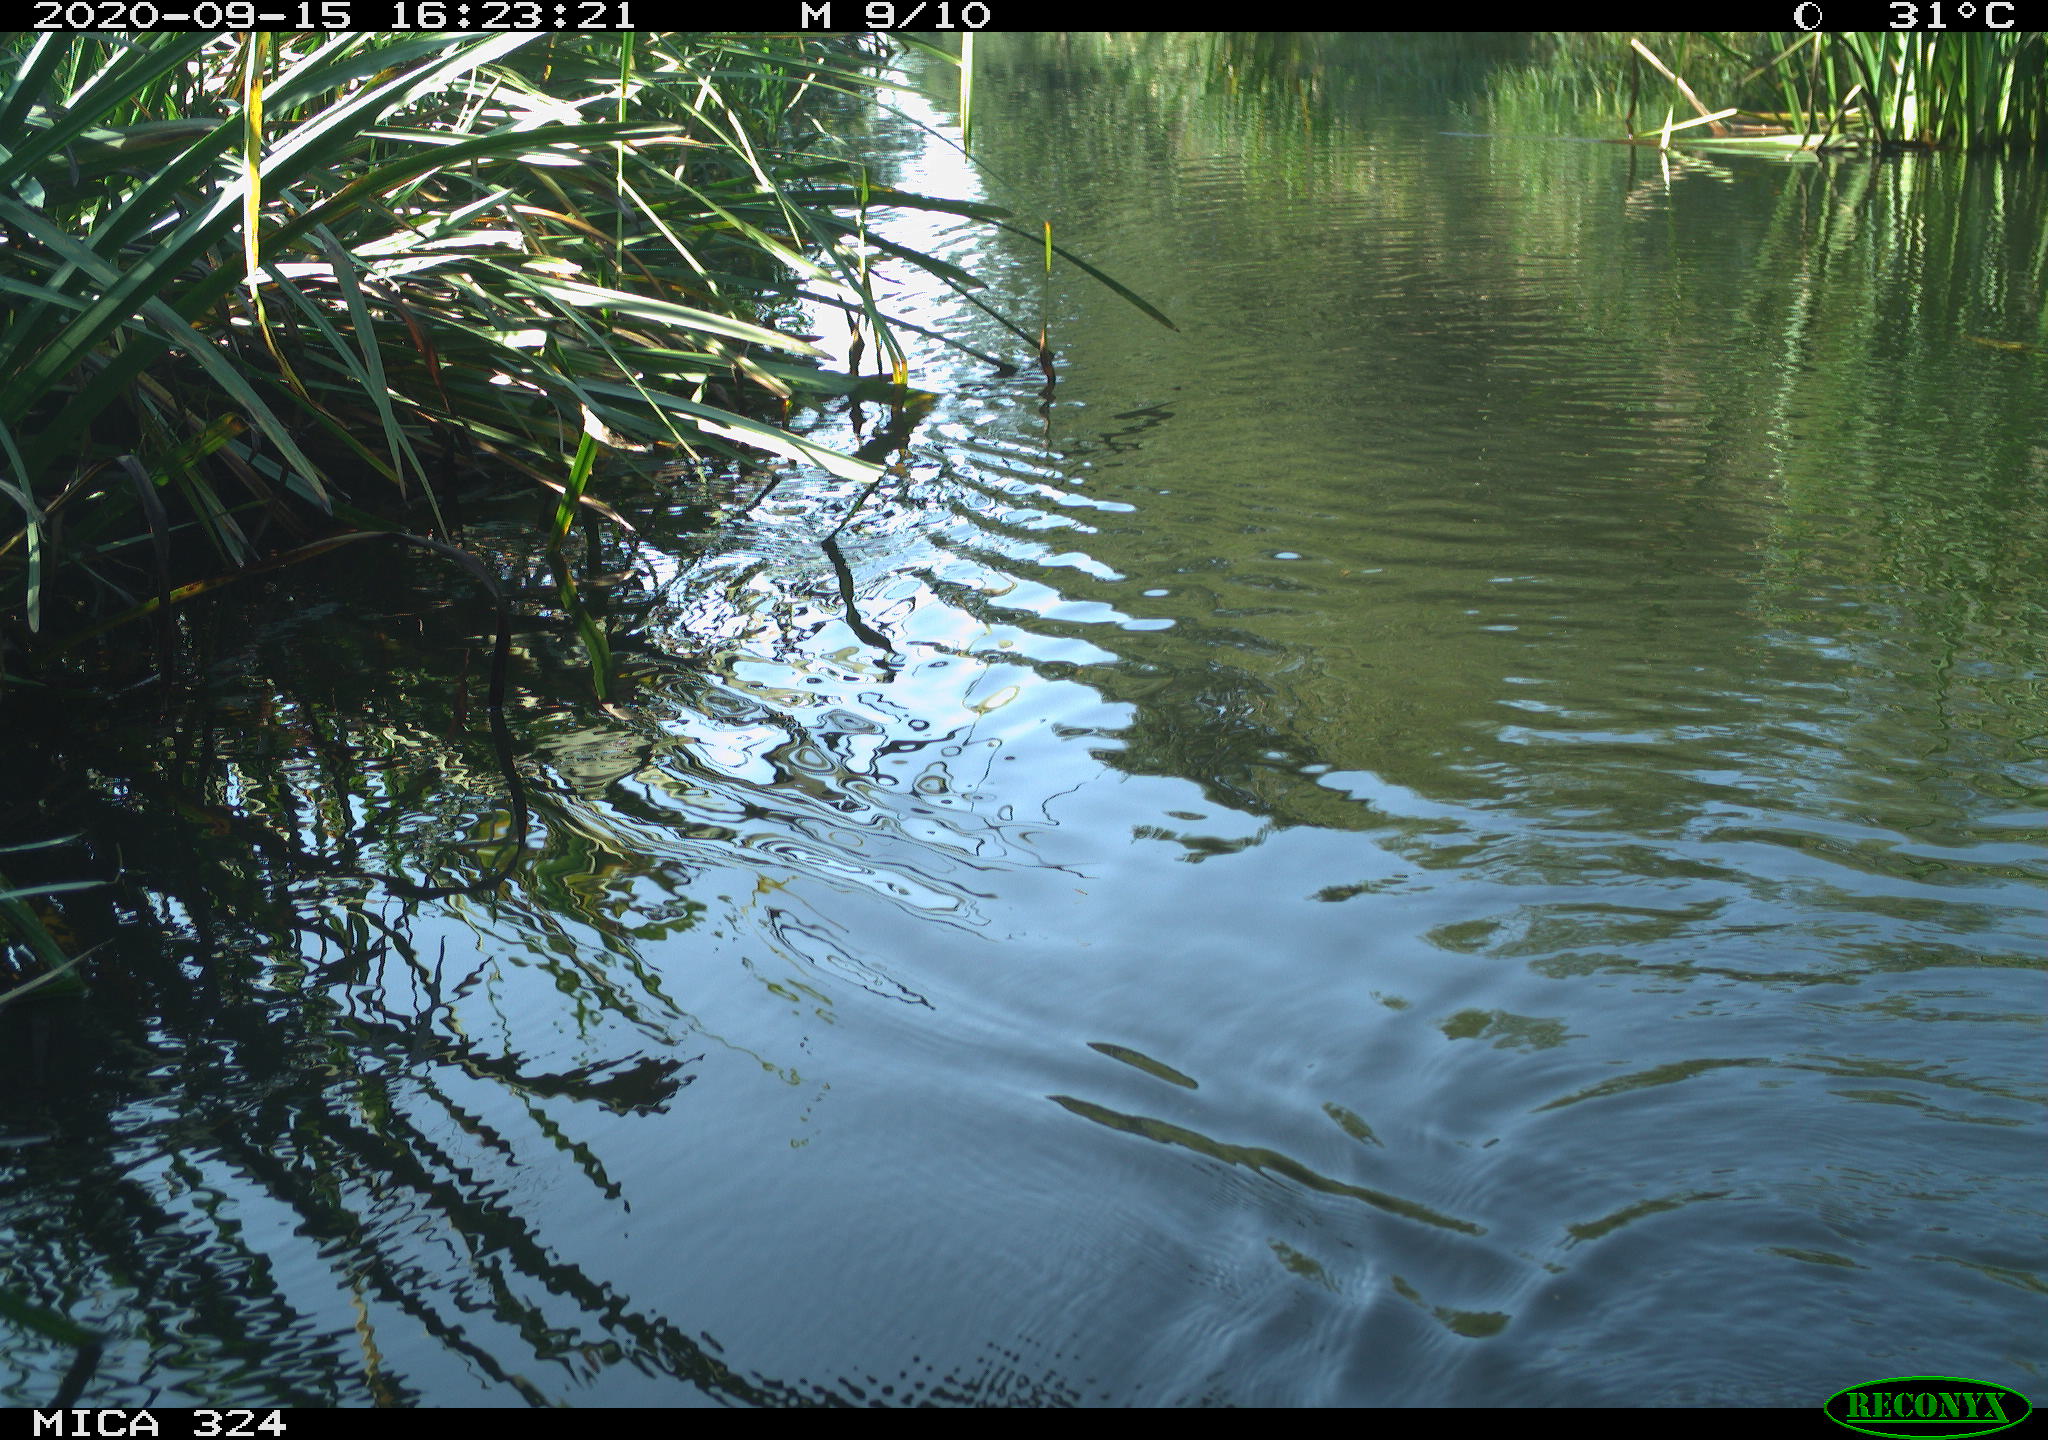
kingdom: Animalia
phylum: Chordata
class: Mammalia
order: Rodentia
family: Cricetidae
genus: Ondatra
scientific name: Ondatra zibethicus
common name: Muskrat
